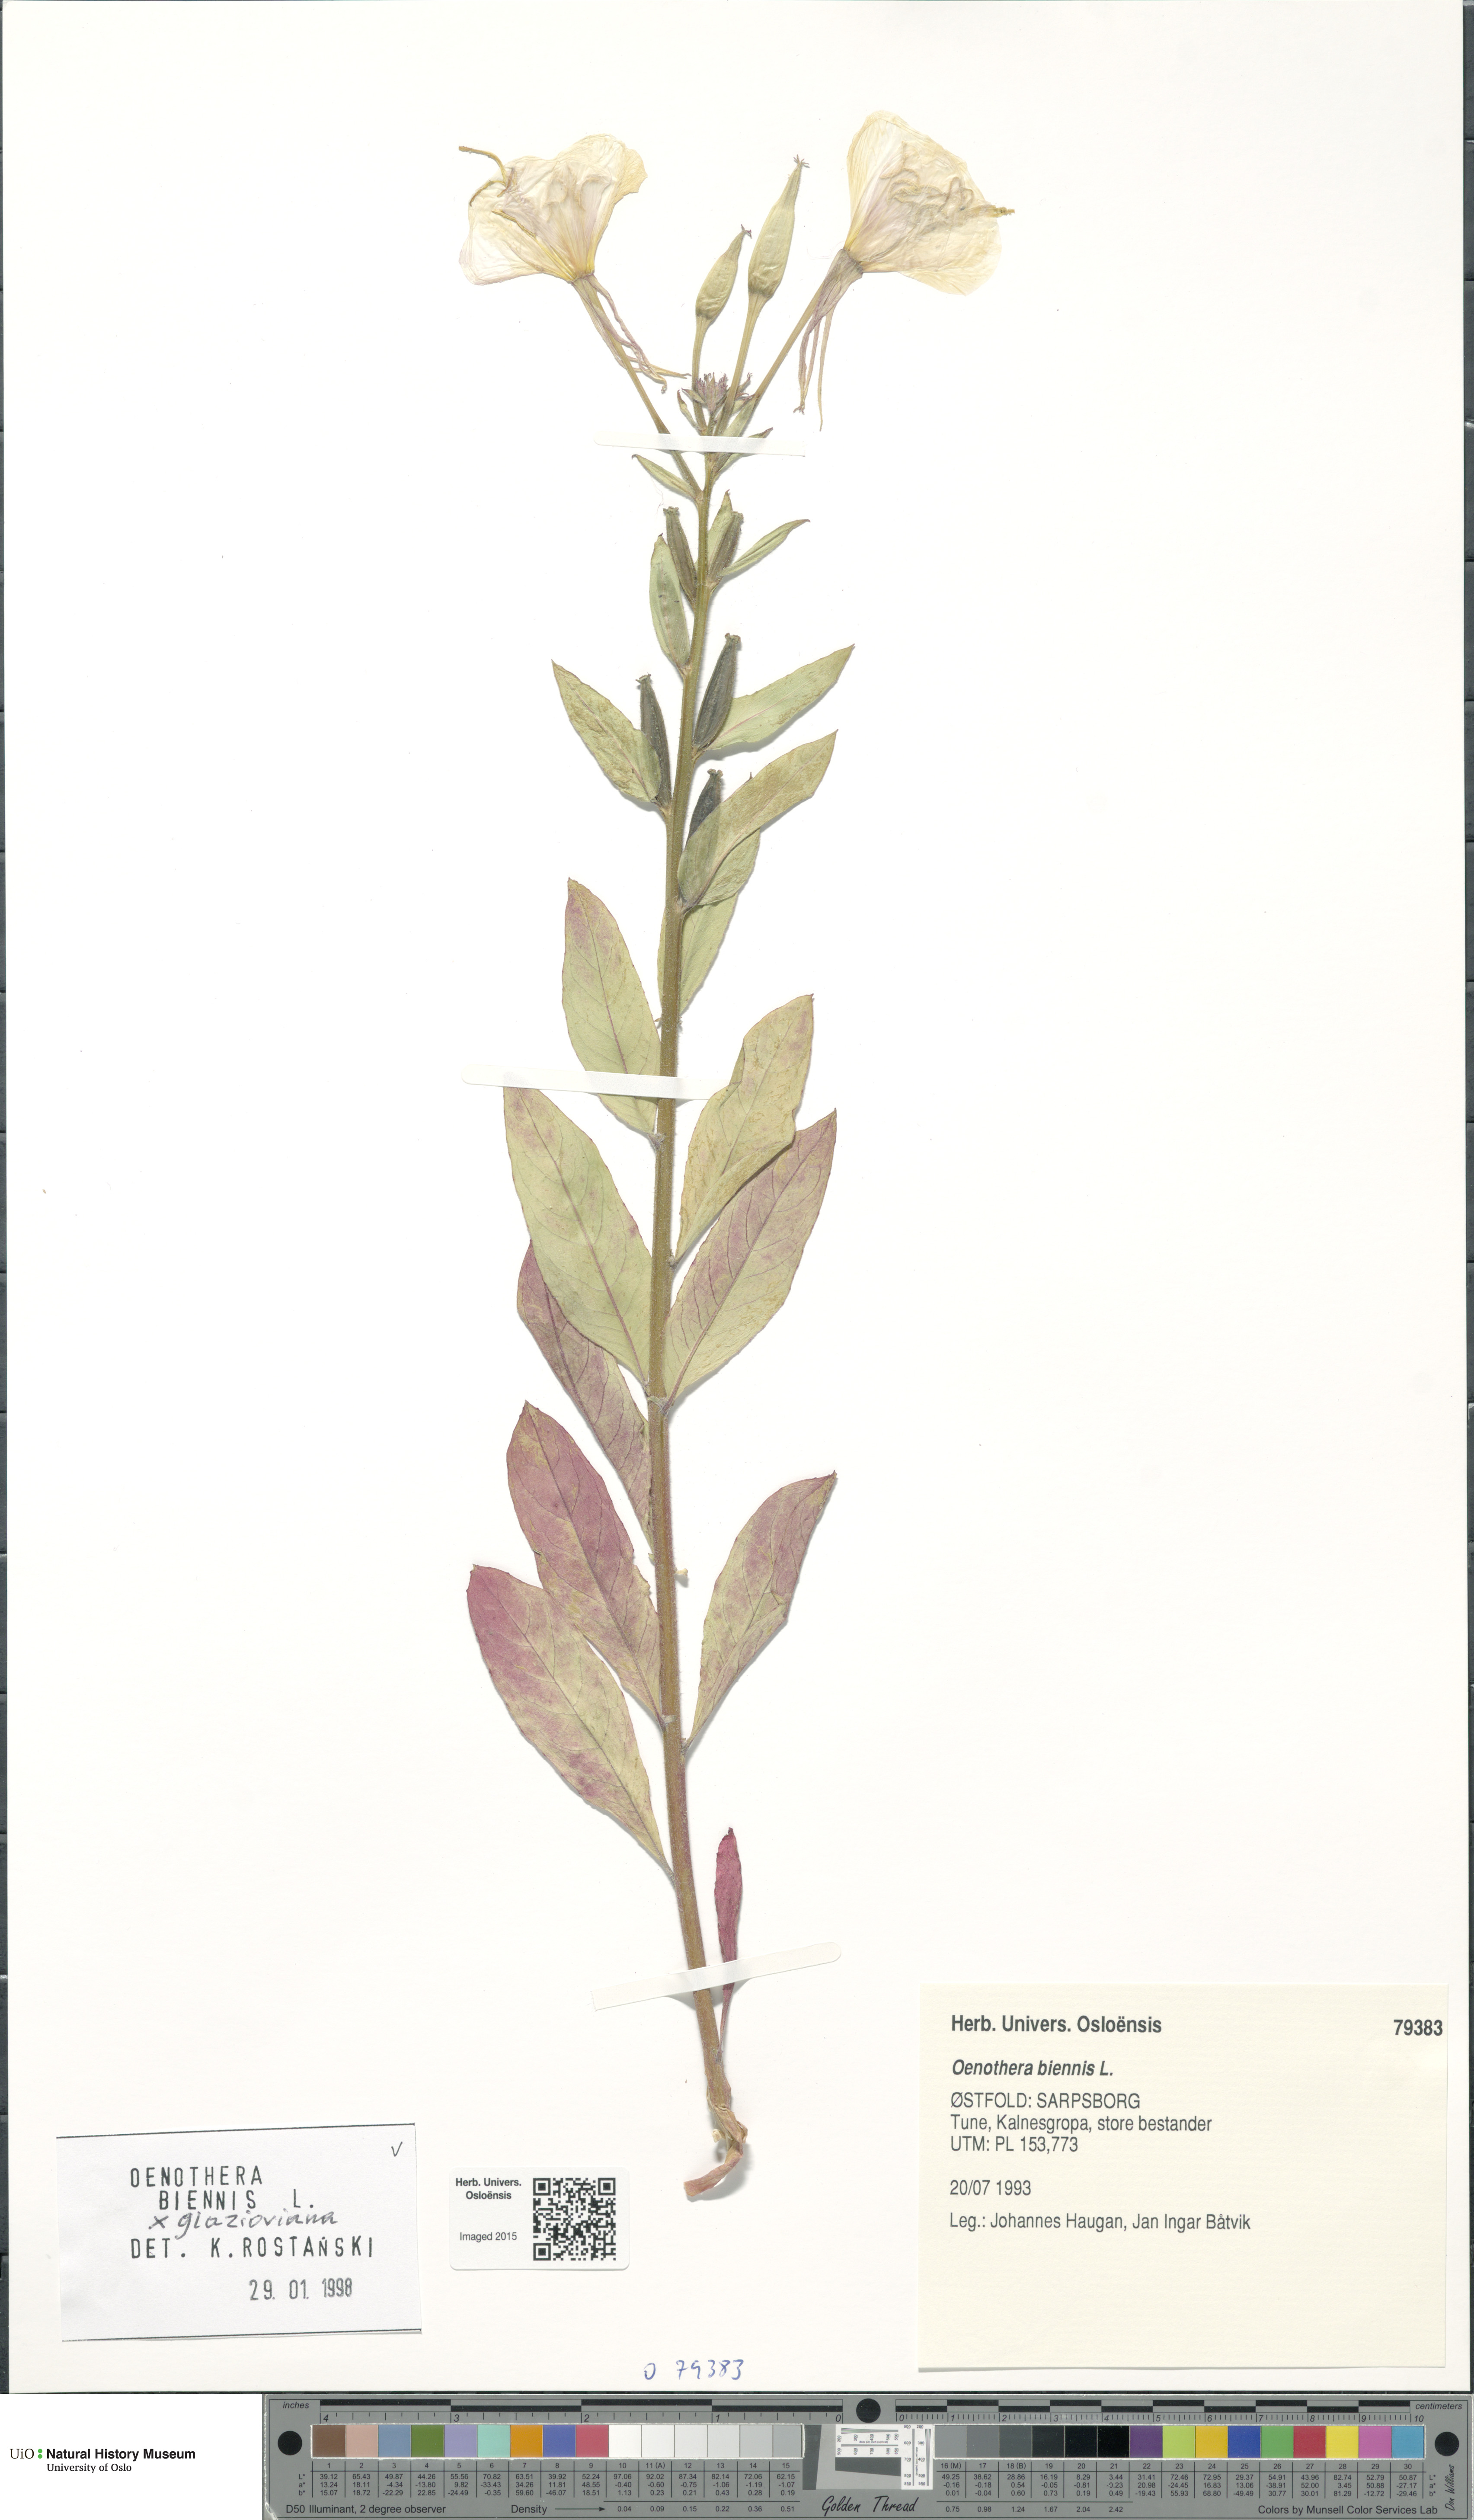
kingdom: Plantae
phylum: Tracheophyta
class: Magnoliopsida
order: Myrtales
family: Onagraceae
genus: Oenothera
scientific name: Oenothera
